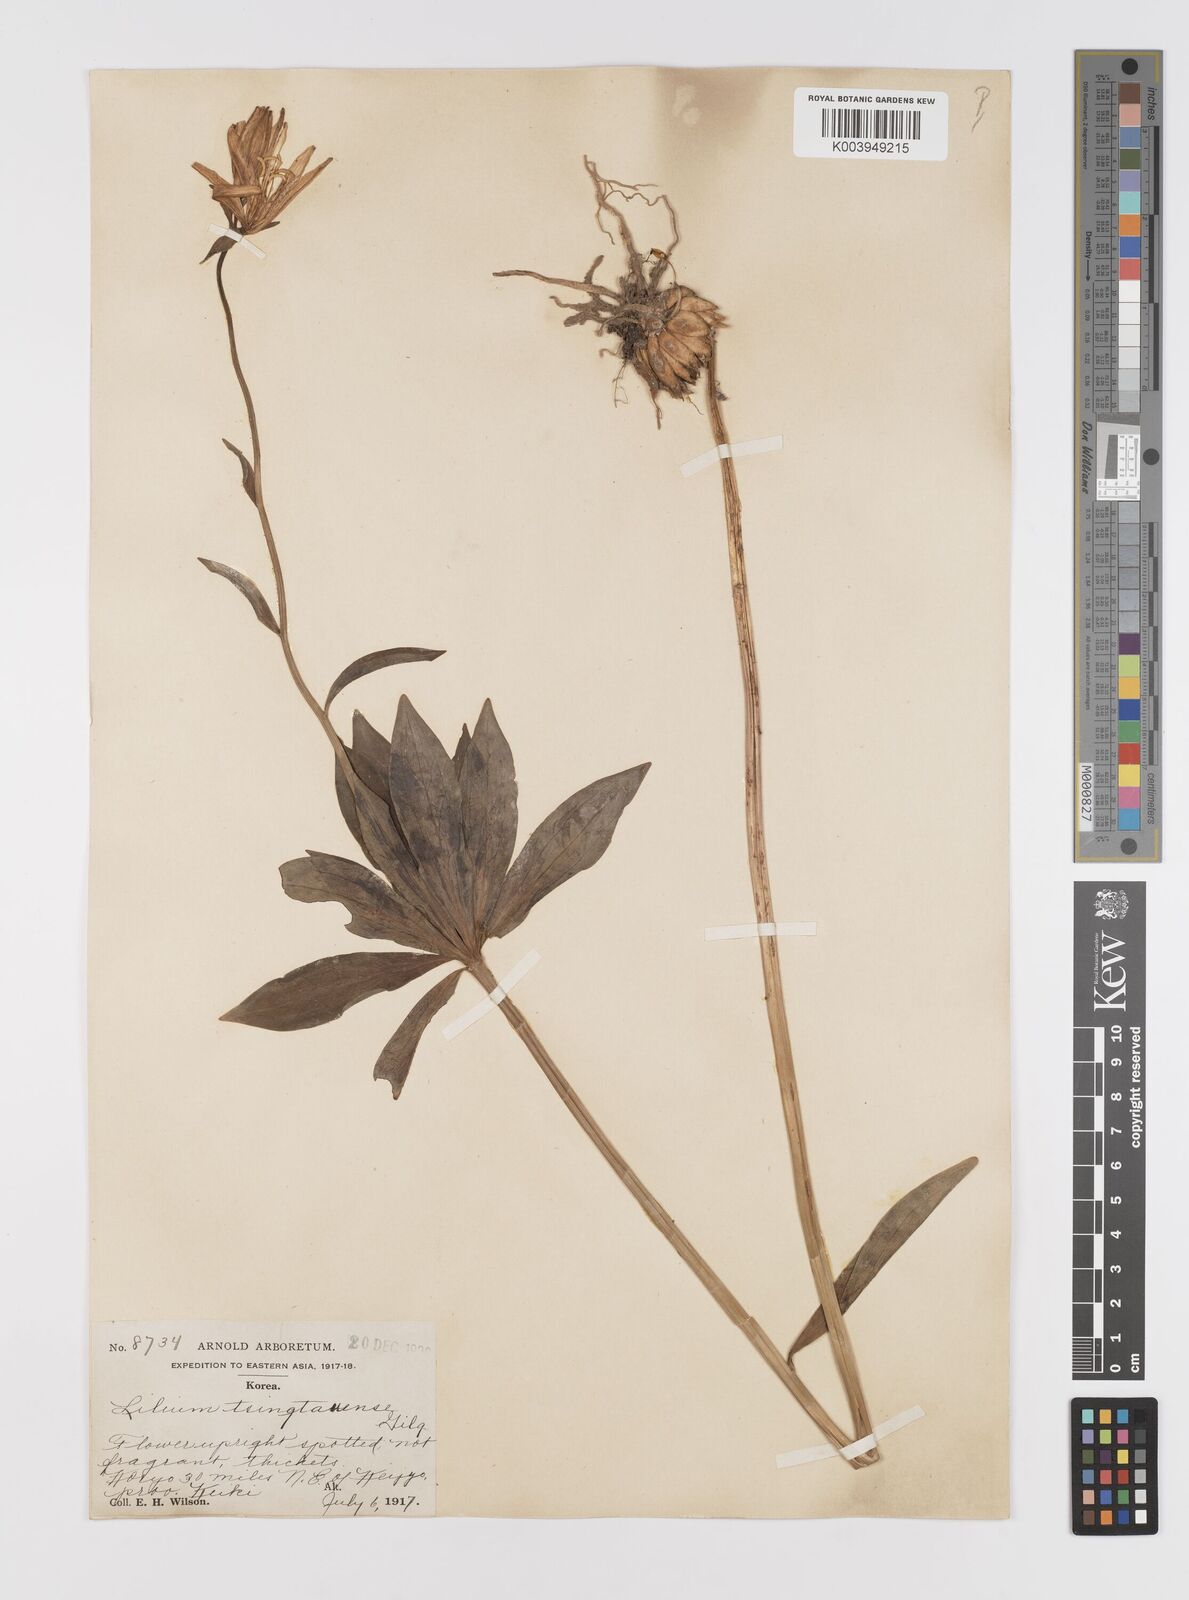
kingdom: Plantae
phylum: Tracheophyta
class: Liliopsida
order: Liliales
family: Liliaceae
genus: Lilium
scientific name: Lilium tsingtauense
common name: Korean wheel lily
